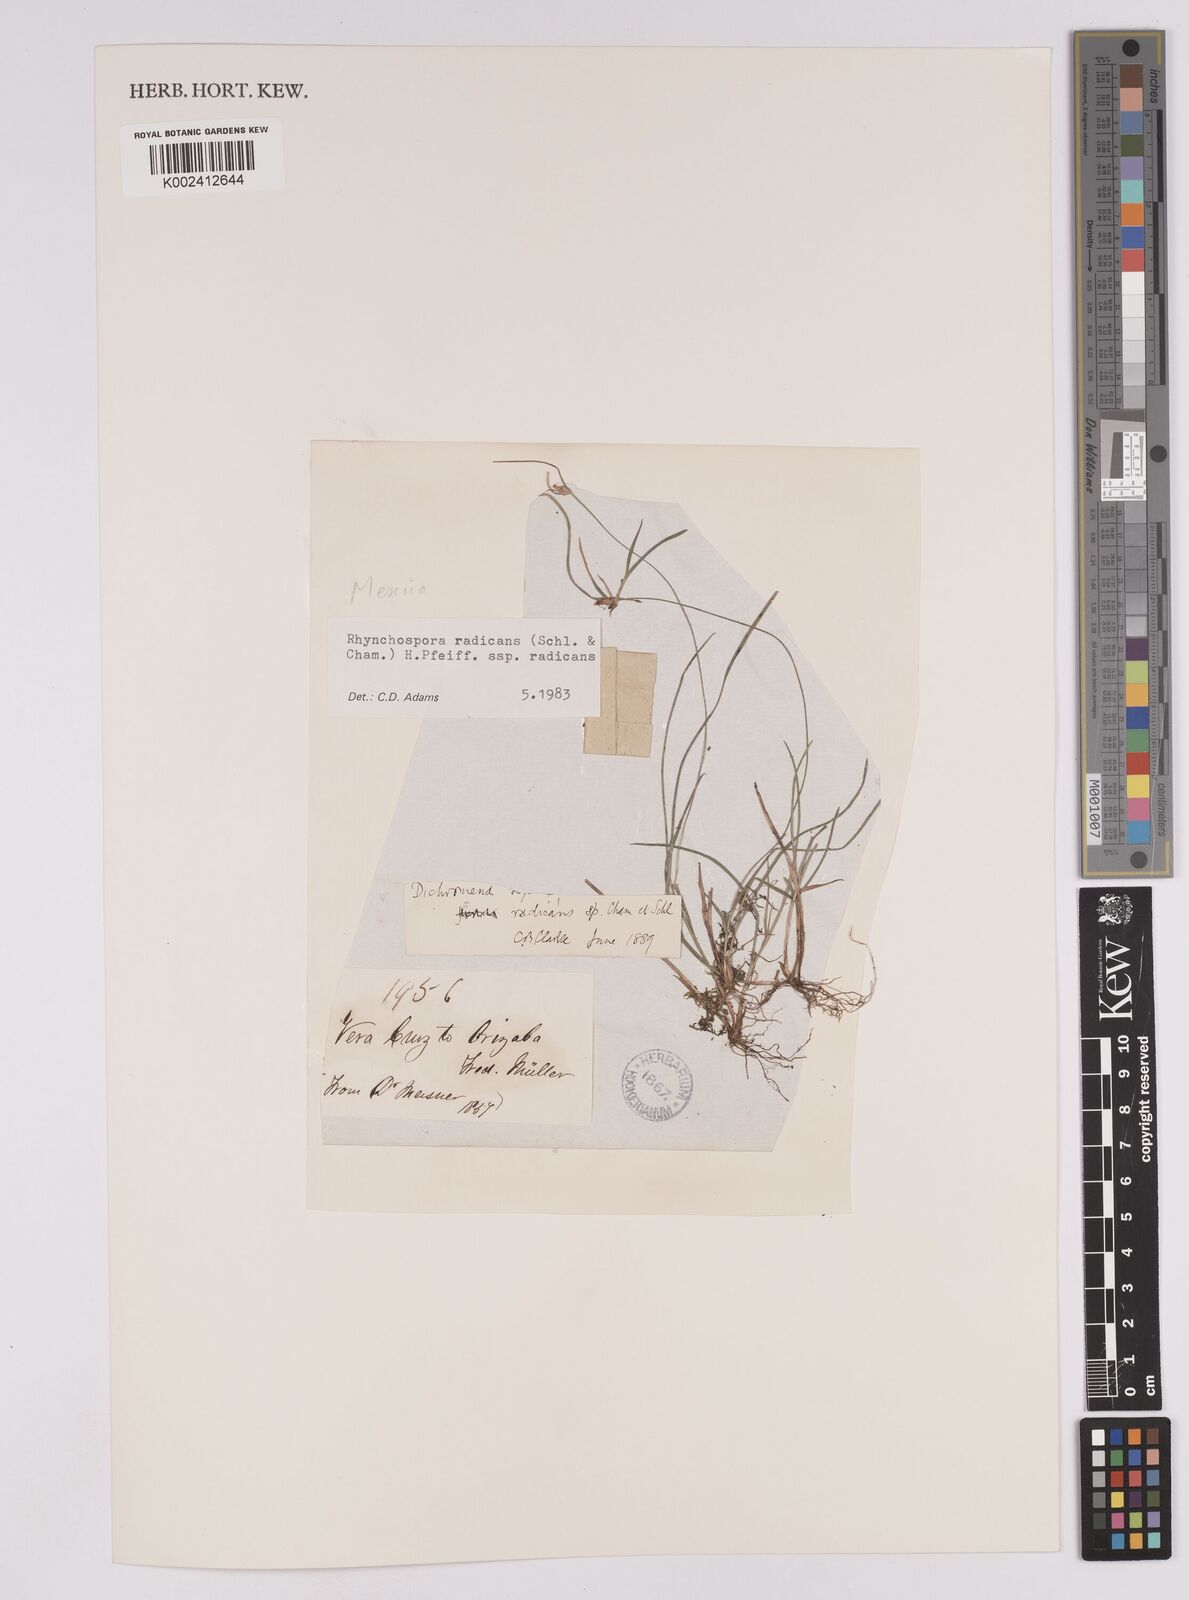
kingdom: Plantae
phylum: Tracheophyta
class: Liliopsida
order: Poales
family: Cyperaceae
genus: Rhynchospora
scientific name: Rhynchospora radicans
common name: Tropical whitetop
